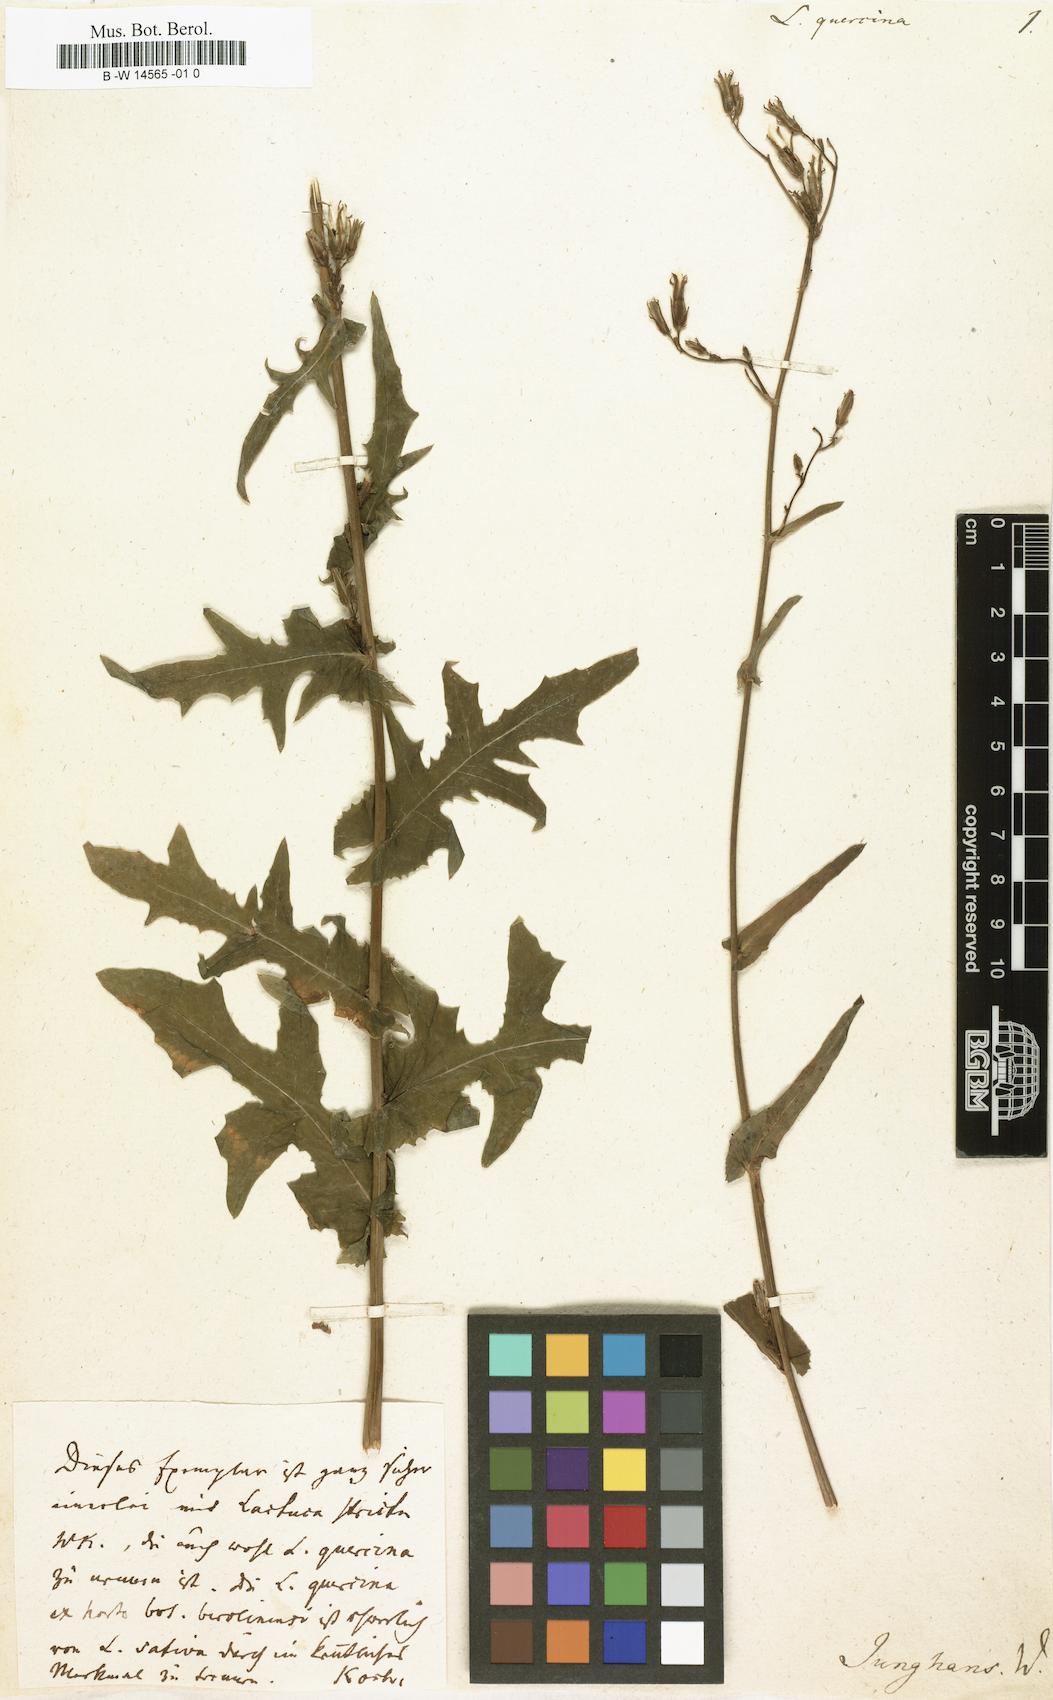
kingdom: Plantae
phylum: Tracheophyta
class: Magnoliopsida
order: Asterales
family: Asteraceae
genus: Lactuca
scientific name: Lactuca quercina
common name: Wild lettuce
